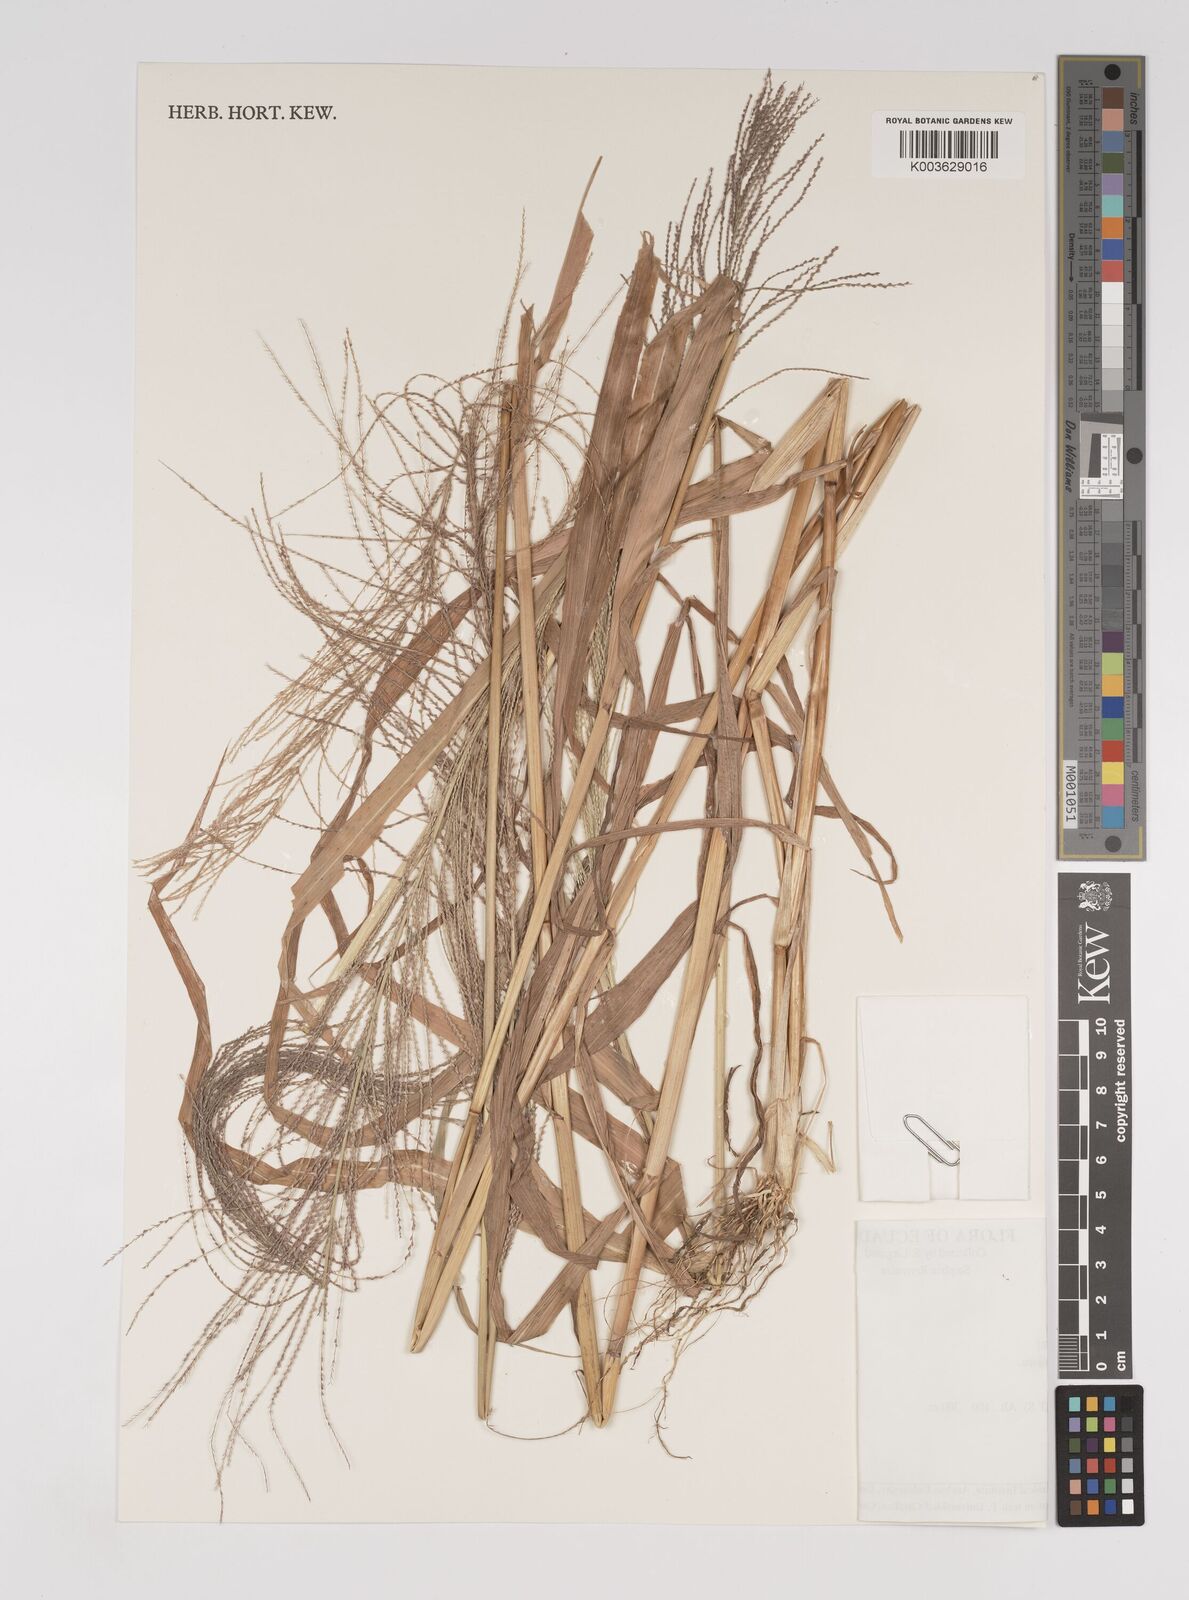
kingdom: Plantae
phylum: Tracheophyta
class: Liliopsida
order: Poales
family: Poaceae
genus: Leptochloa
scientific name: Leptochloa panicea
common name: Mucronate sprangletop
